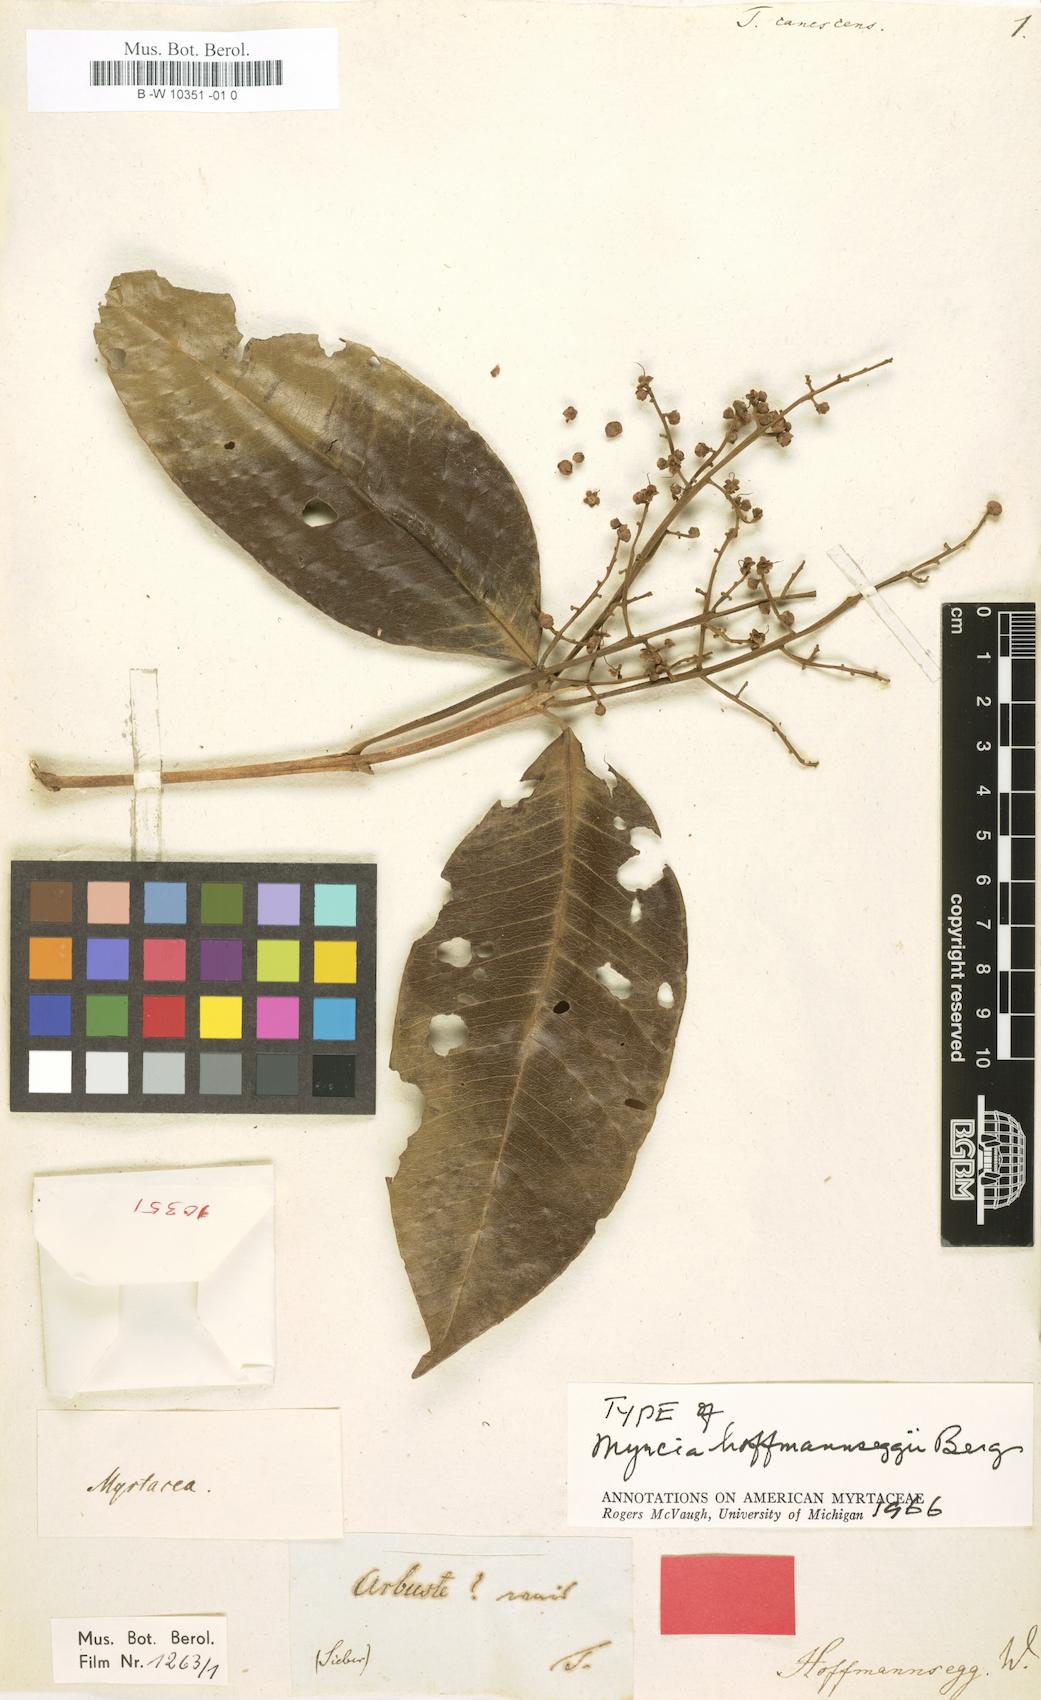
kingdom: Plantae
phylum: Tracheophyta
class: Magnoliopsida
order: Myrtales
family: Myrtaceae
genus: Myrcia
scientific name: Myrcia hoffmannseggii
